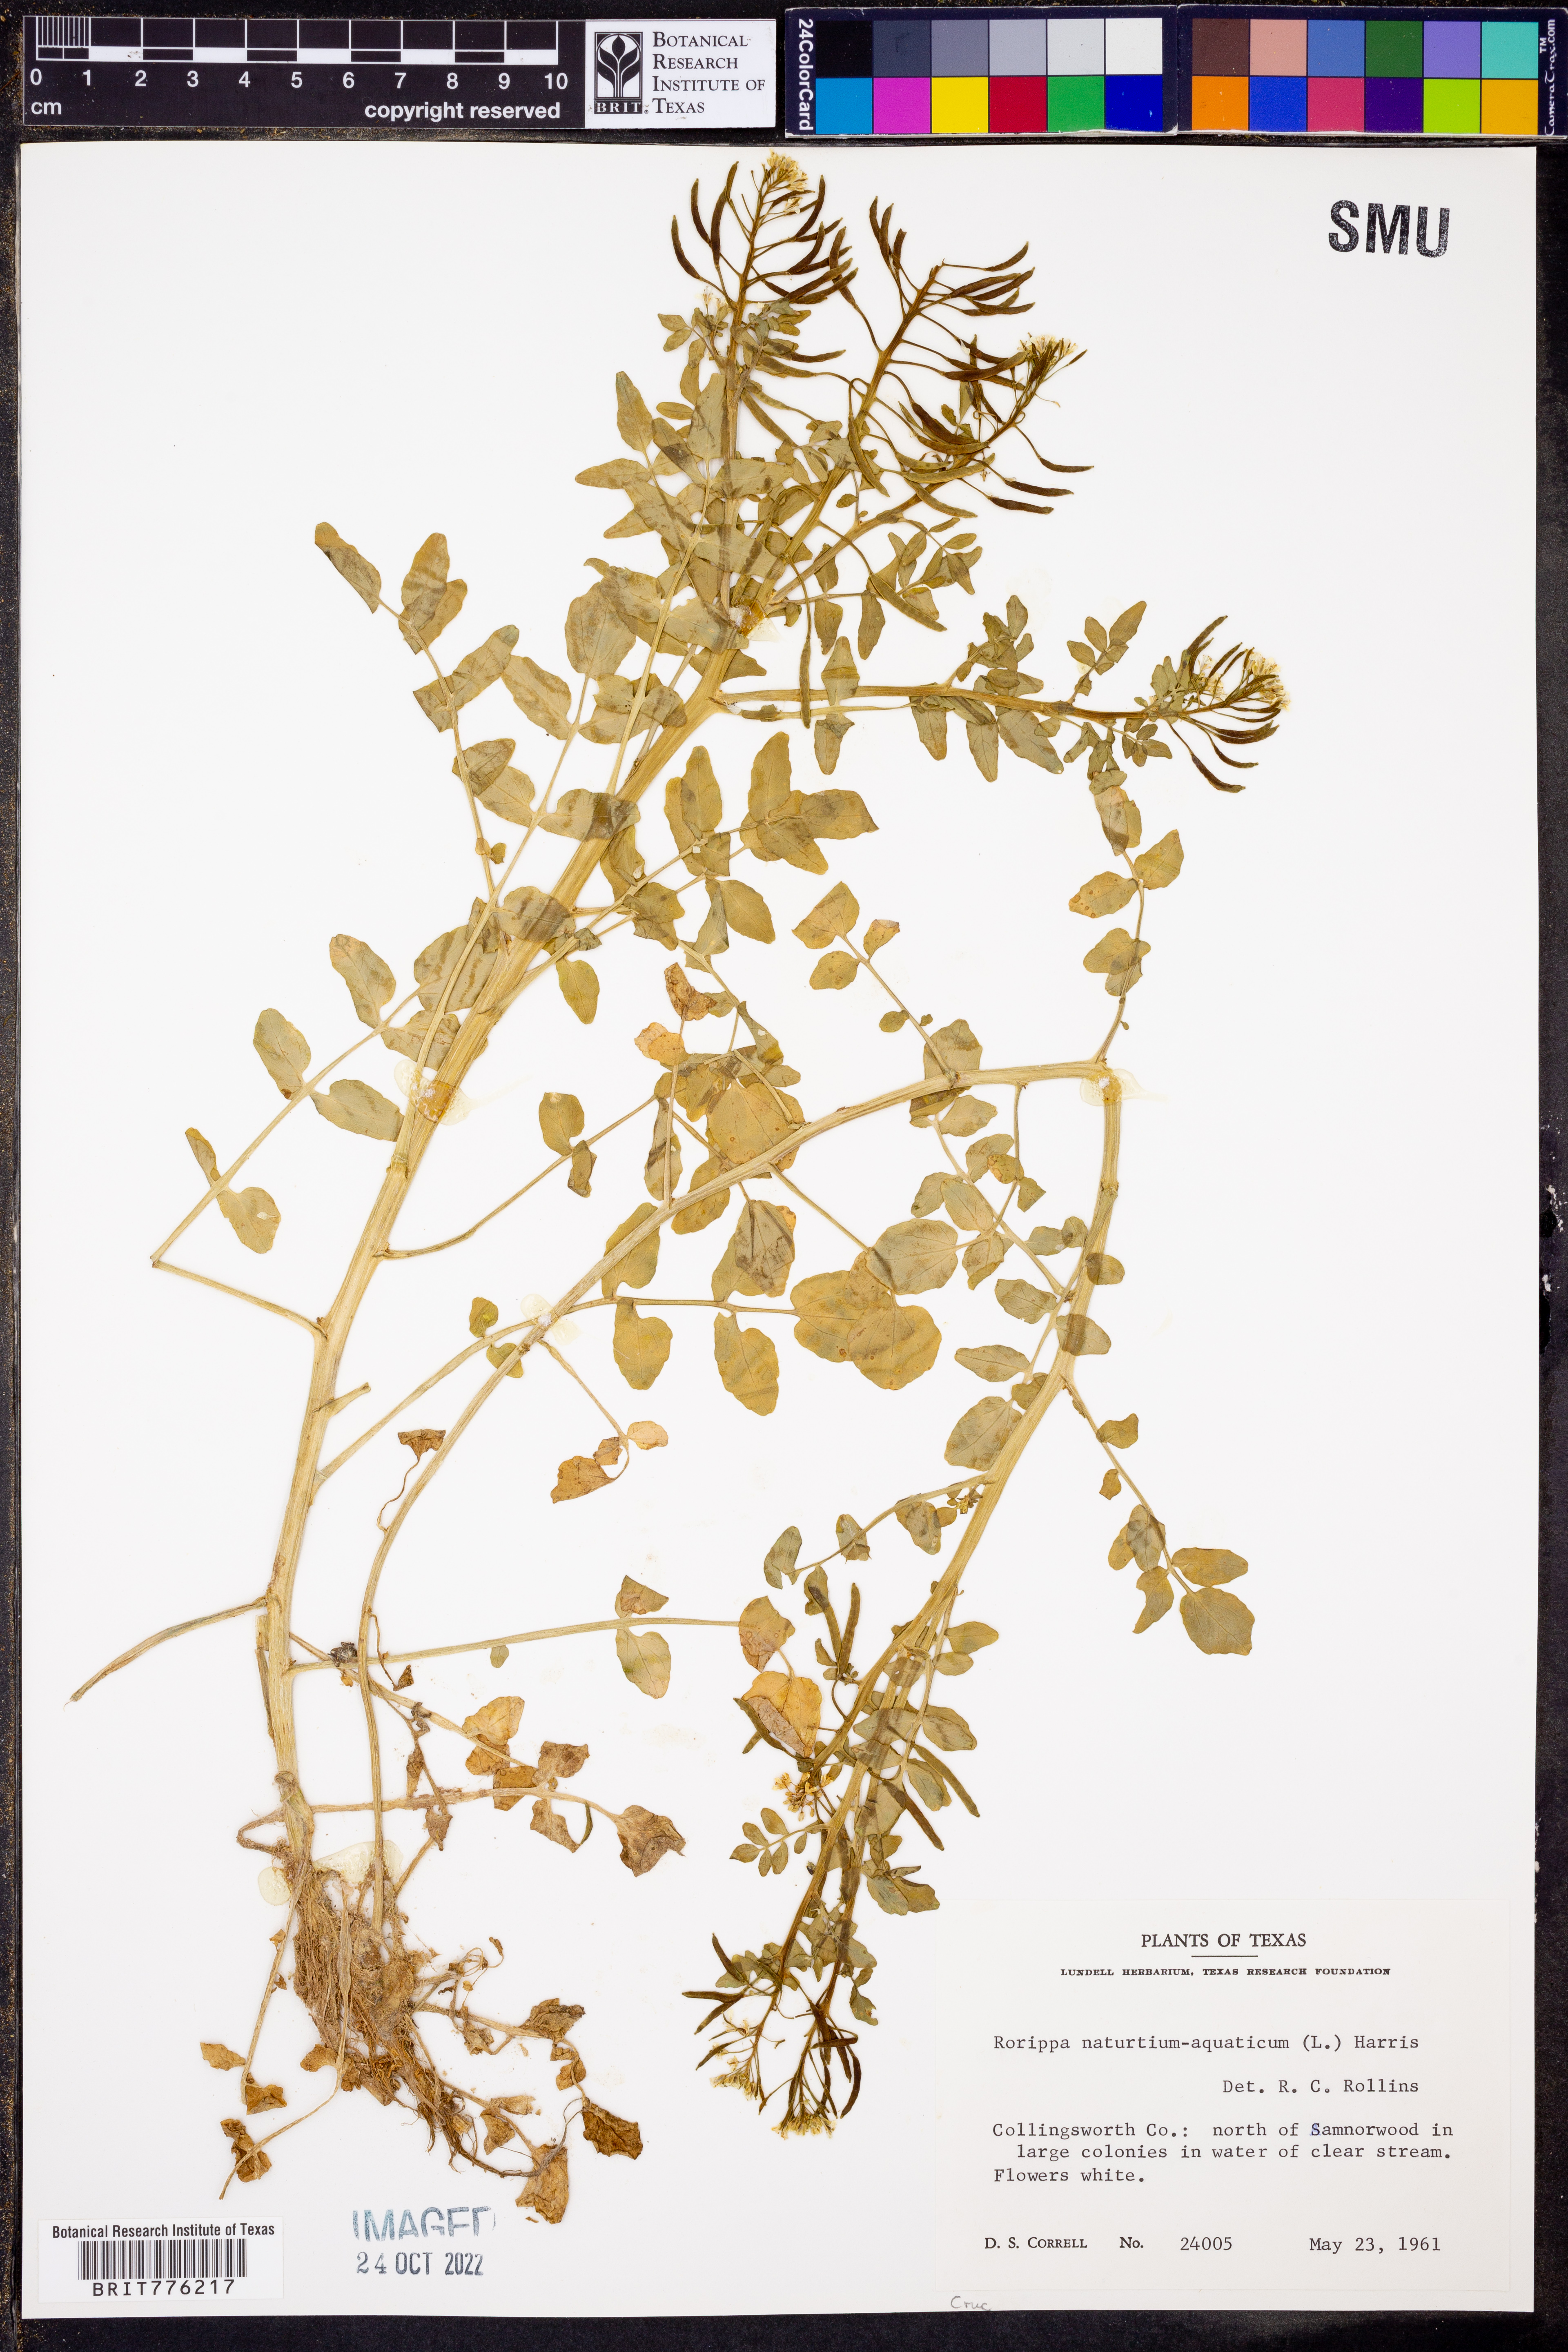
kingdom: Plantae
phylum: Tracheophyta
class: Magnoliopsida
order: Brassicales
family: Brassicaceae
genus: Nasturtium
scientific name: Nasturtium officinale
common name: Watercress
